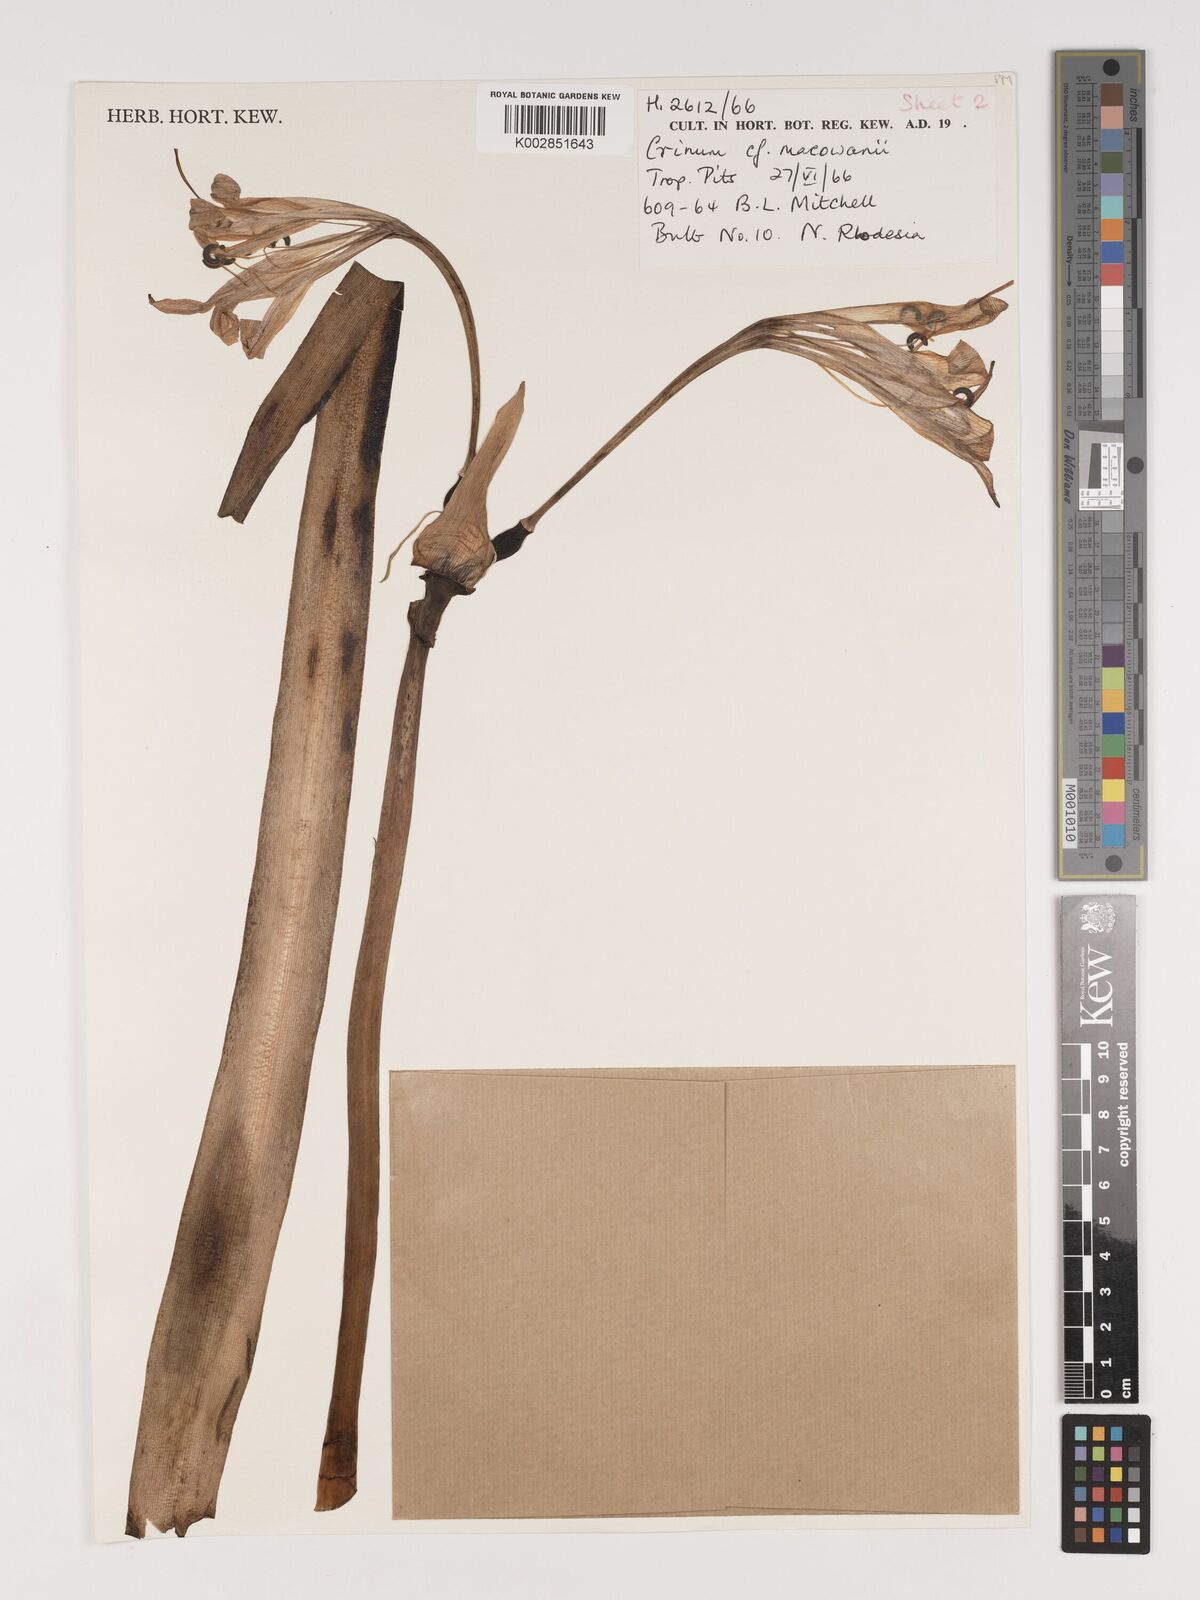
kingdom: Plantae
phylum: Tracheophyta
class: Liliopsida
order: Asparagales
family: Amaryllidaceae
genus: Crinum
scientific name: Crinum macowanii
